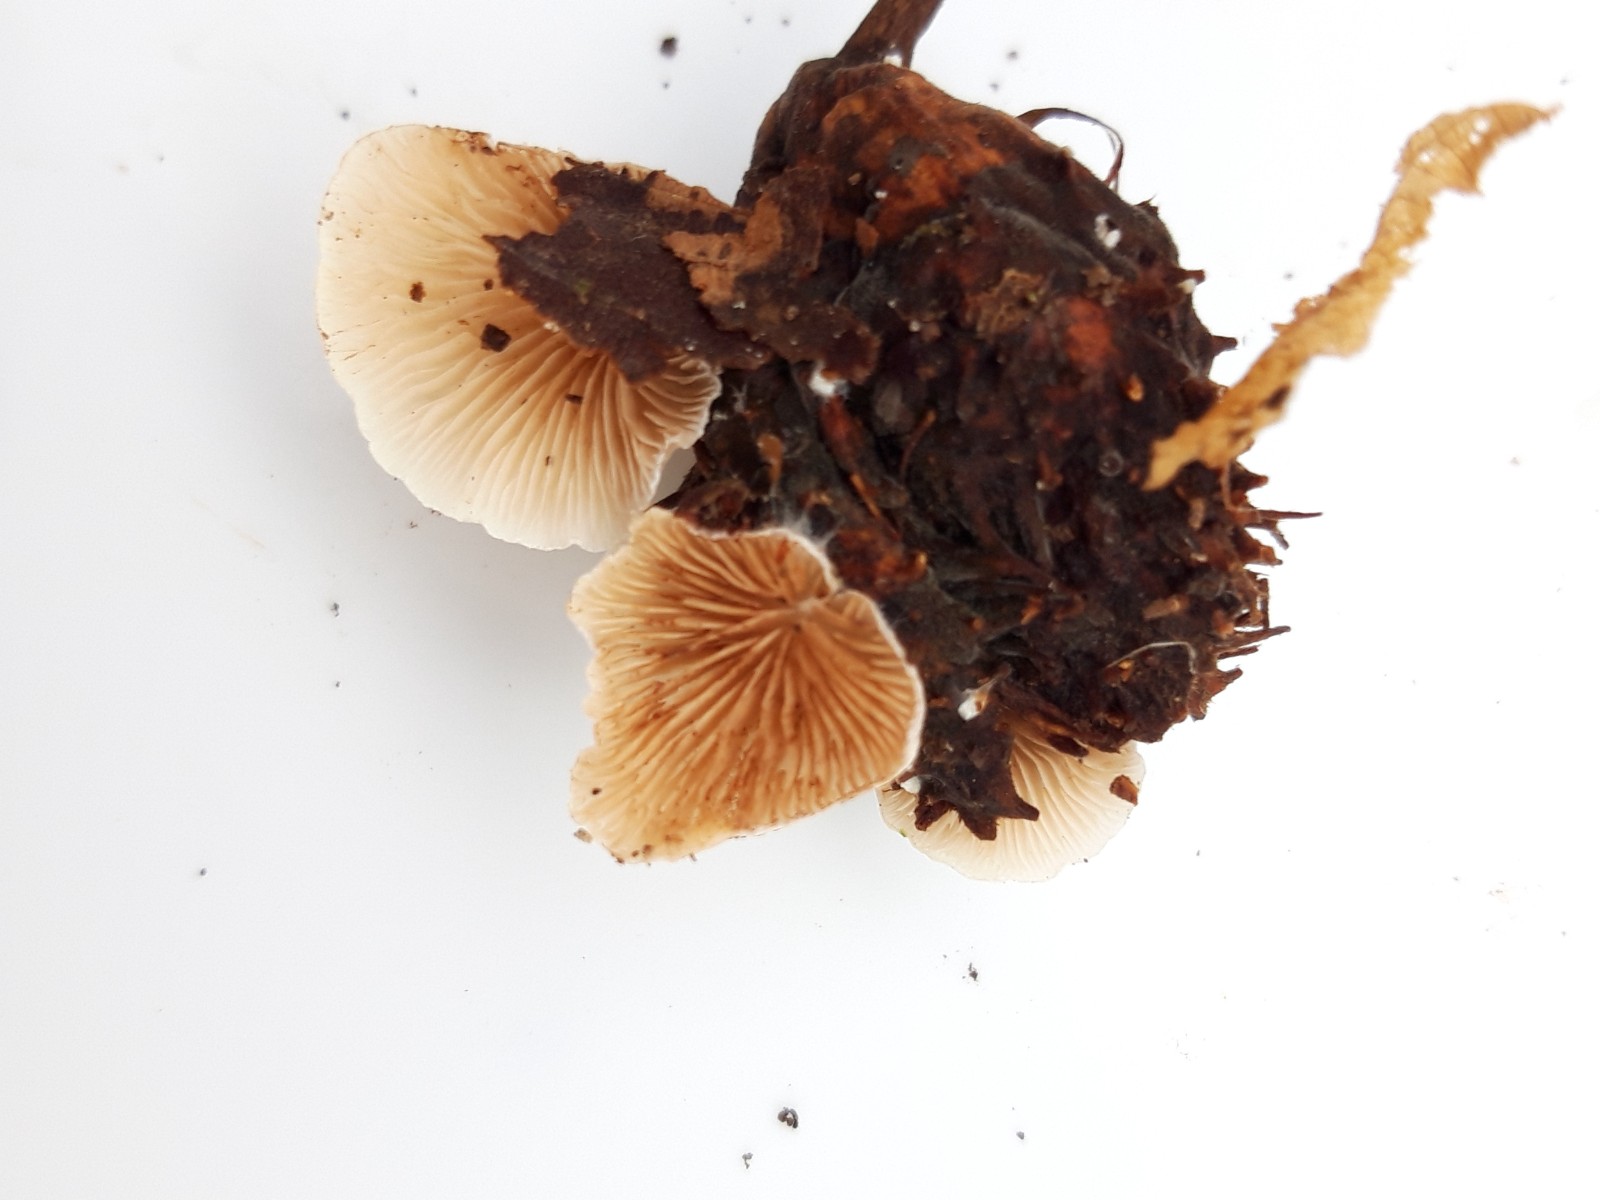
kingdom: Fungi
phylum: Basidiomycota
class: Agaricomycetes
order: Agaricales
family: Crepidotaceae
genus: Crepidotus
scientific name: Crepidotus
